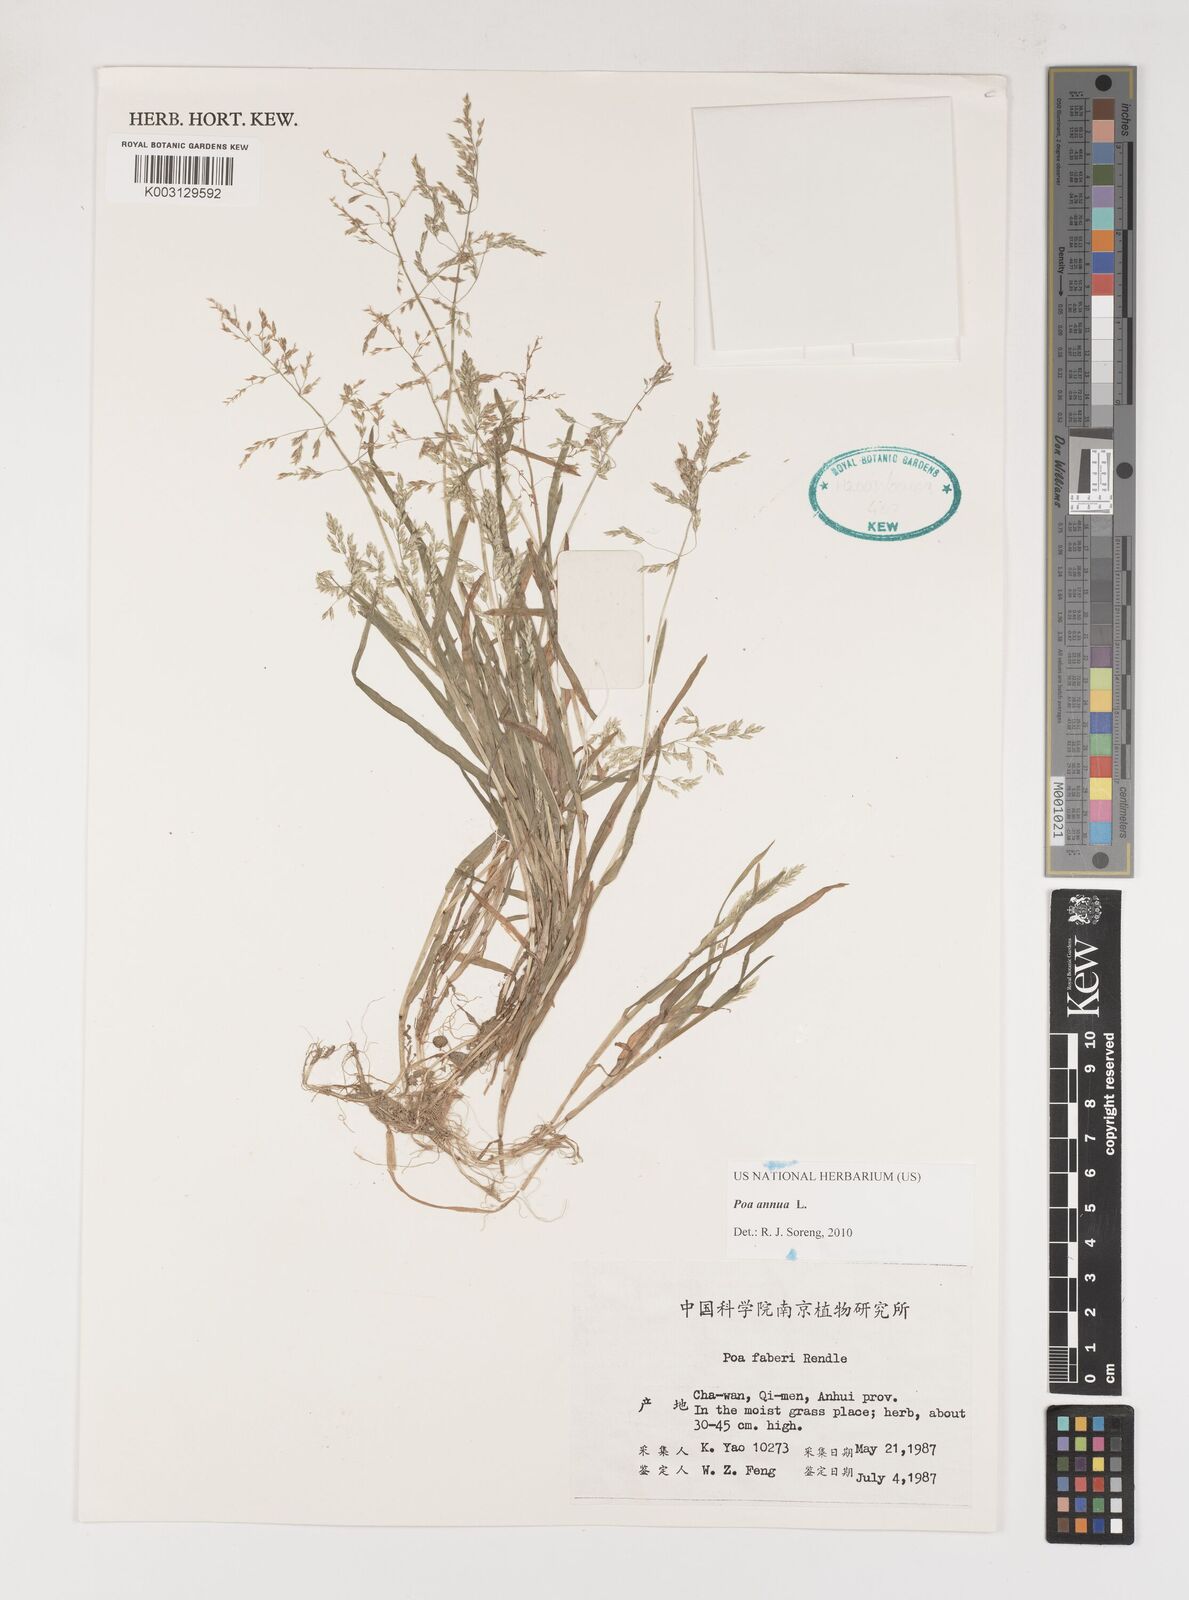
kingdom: Plantae
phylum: Tracheophyta
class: Liliopsida
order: Poales
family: Poaceae
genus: Poa
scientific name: Poa annua
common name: Annual bluegrass
